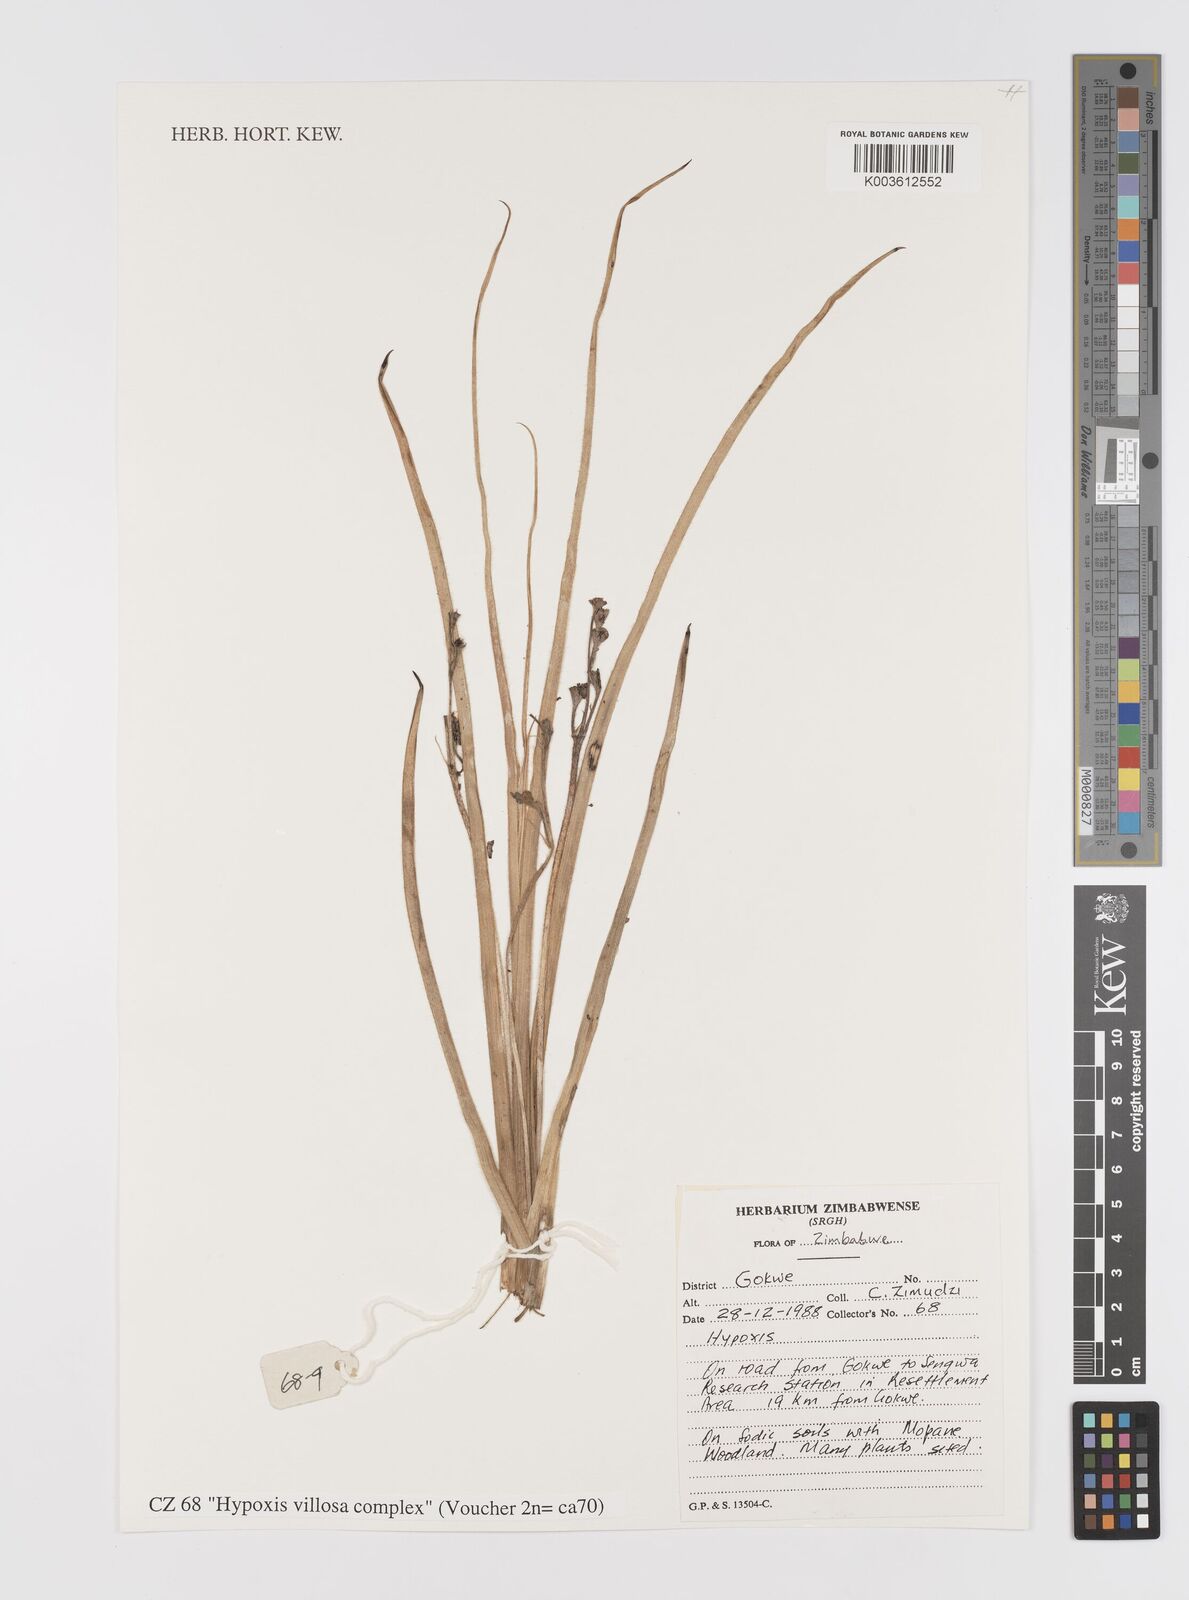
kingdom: Plantae
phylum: Tracheophyta
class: Liliopsida
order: Asparagales
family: Hypoxidaceae
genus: Hypoxis
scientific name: Hypoxis villosa
